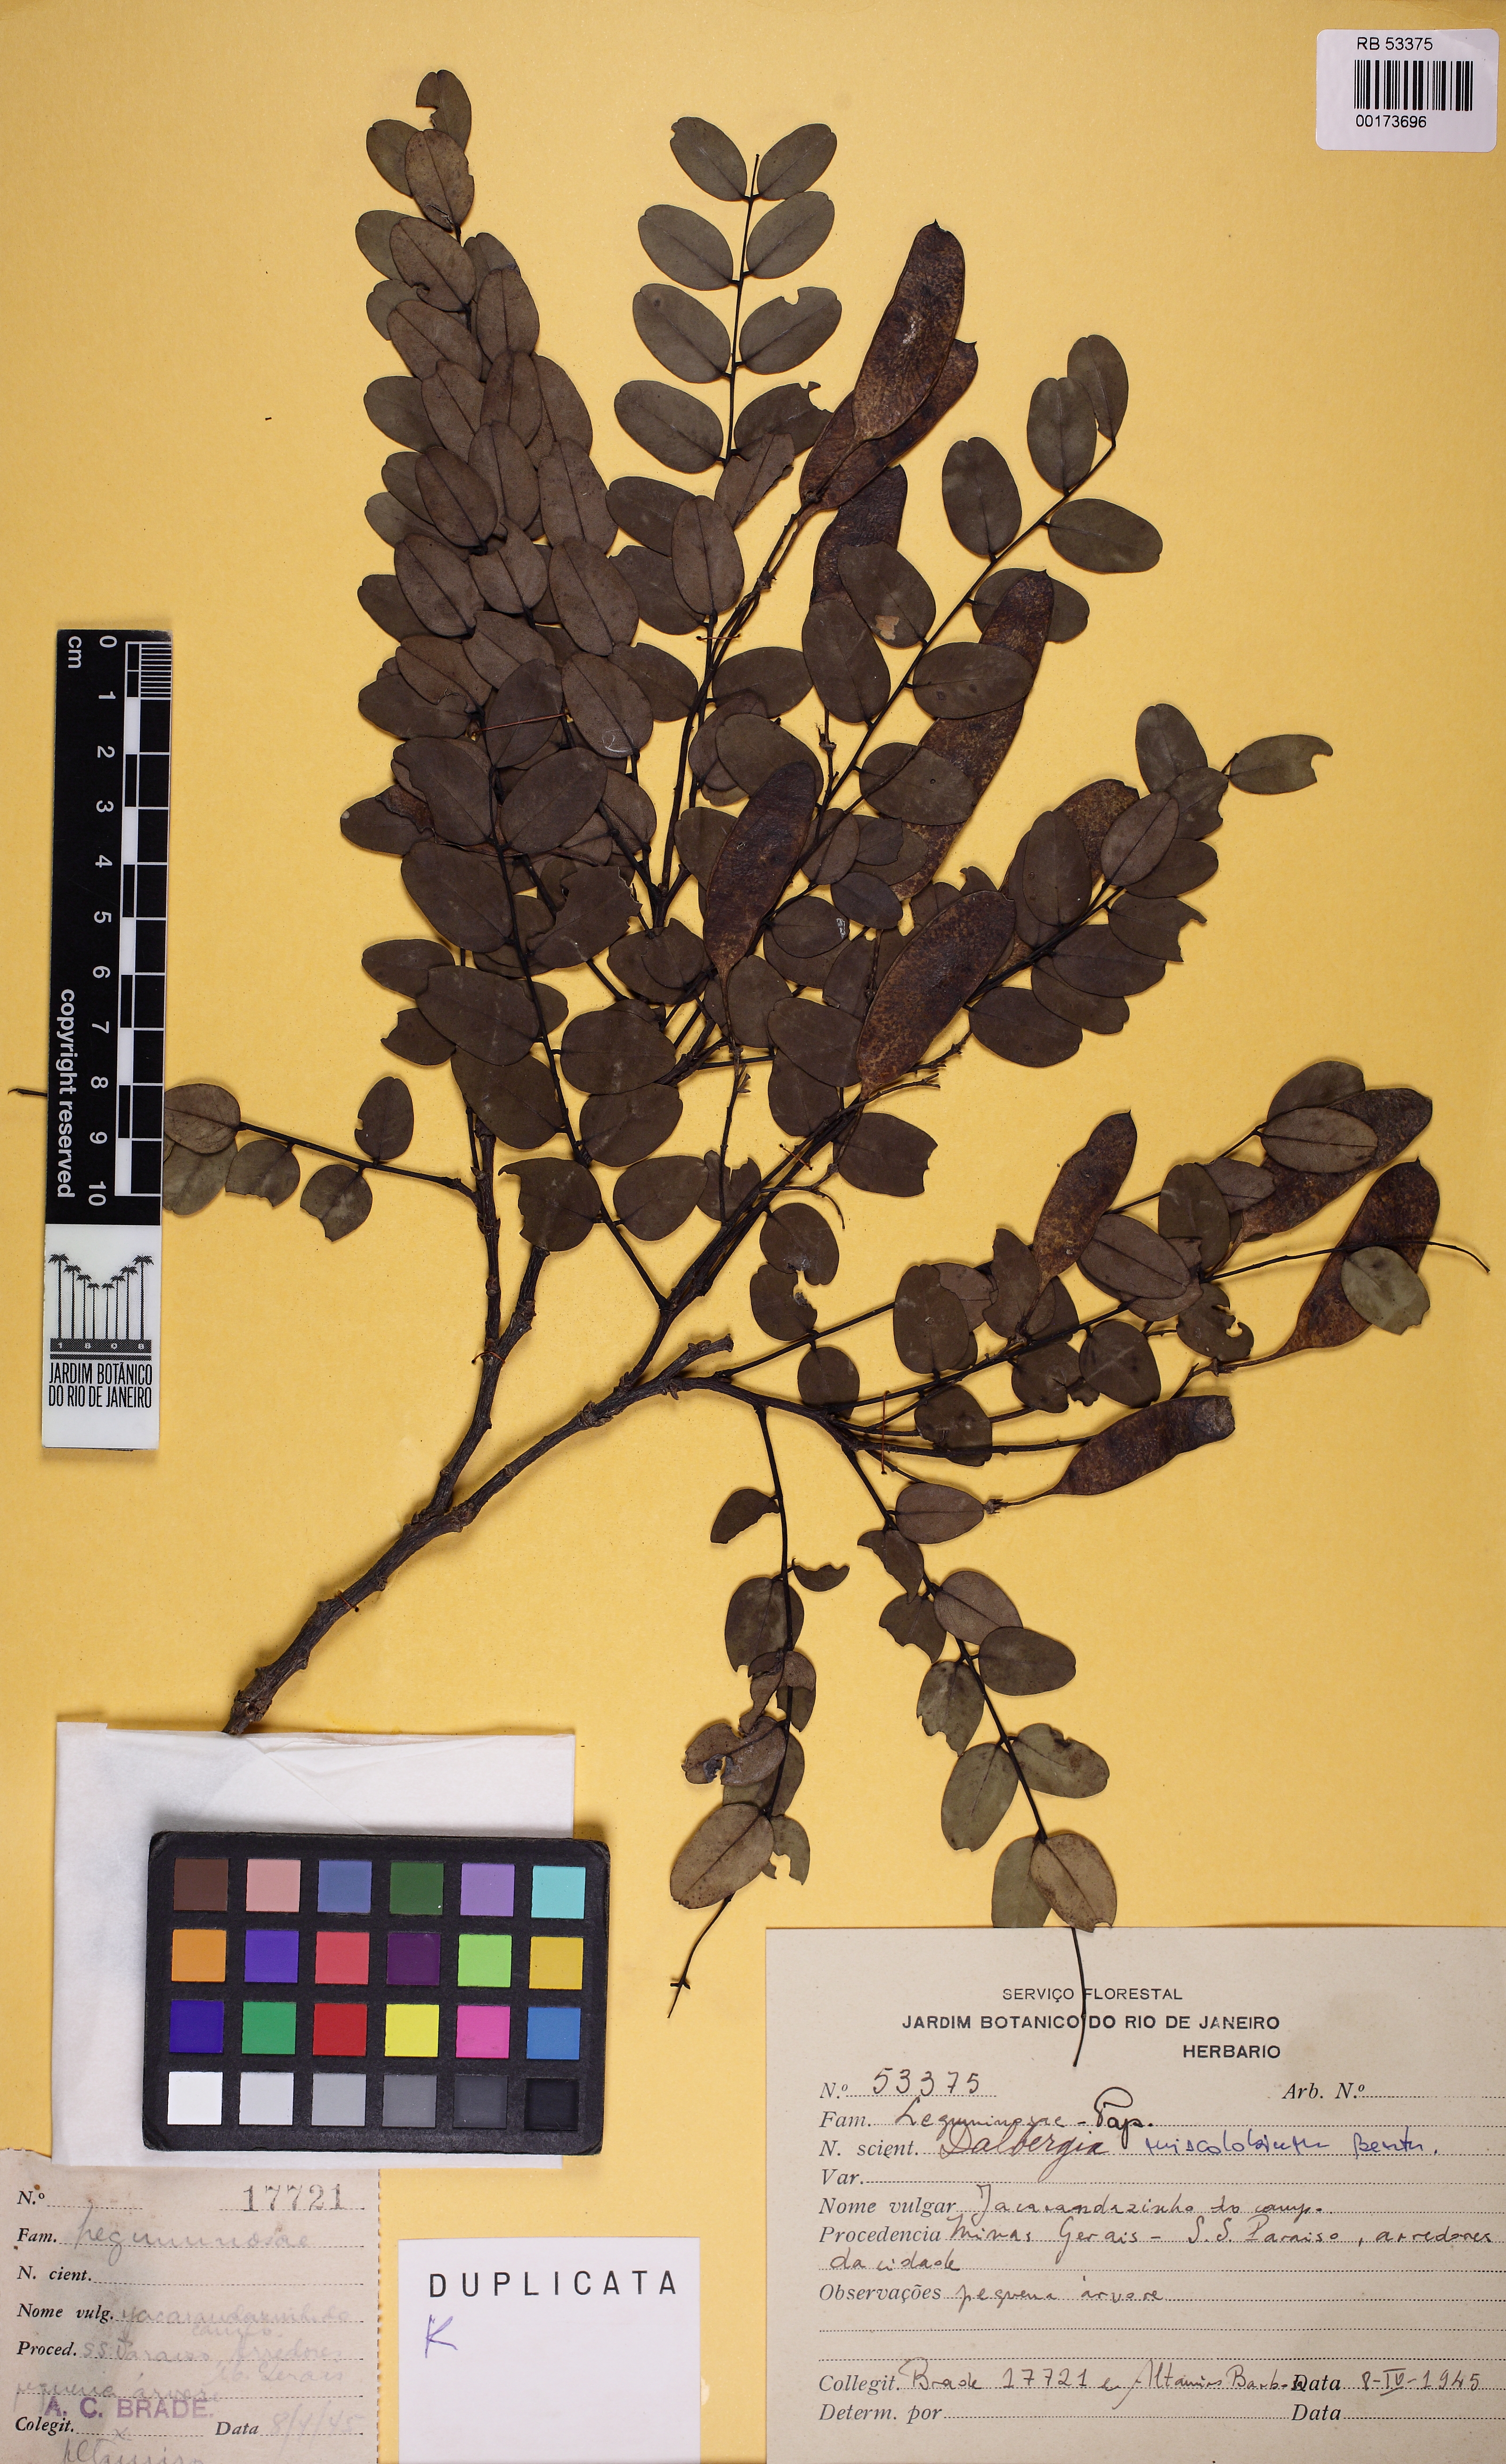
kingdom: Plantae
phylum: Tracheophyta
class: Magnoliopsida
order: Fabales
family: Fabaceae
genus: Dalbergia
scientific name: Dalbergia miscolobium
